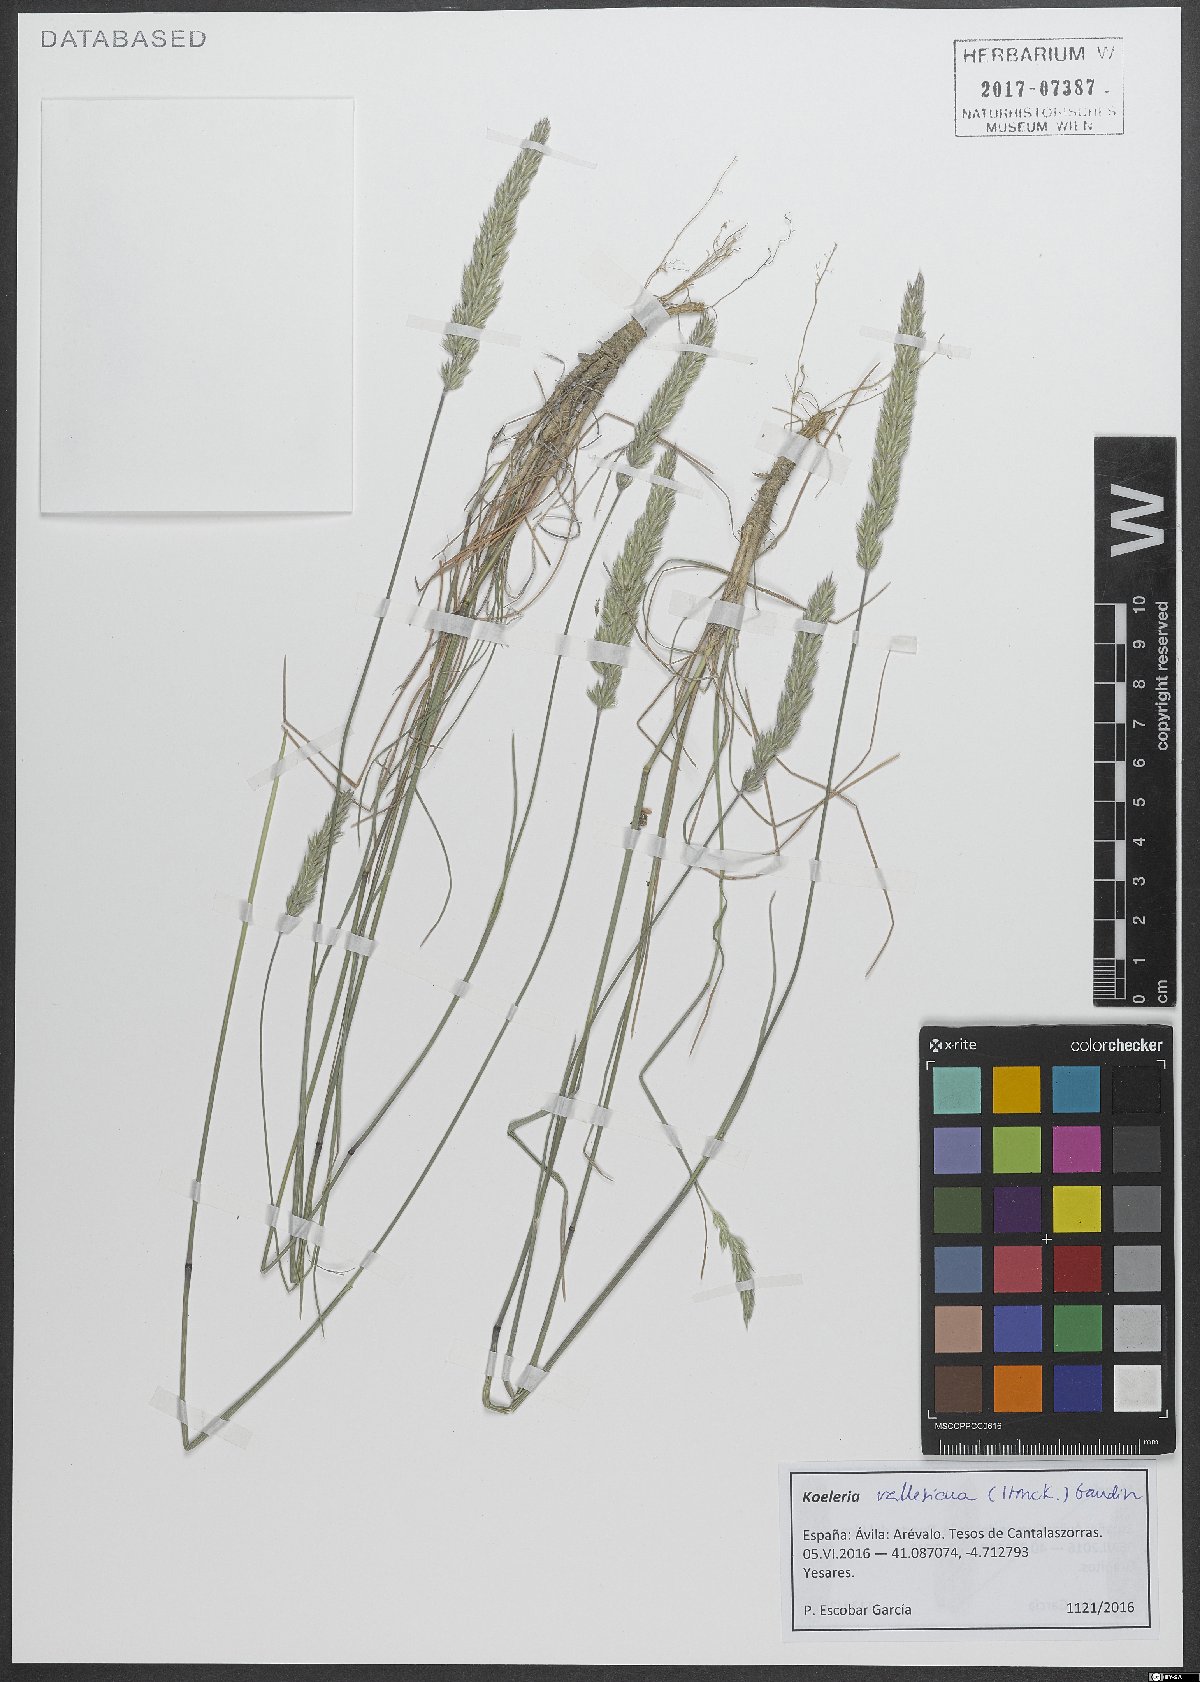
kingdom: Plantae
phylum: Tracheophyta
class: Liliopsida
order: Poales
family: Poaceae
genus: Koeleria
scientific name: Koeleria vallesiana
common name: Somerset hair-grass
